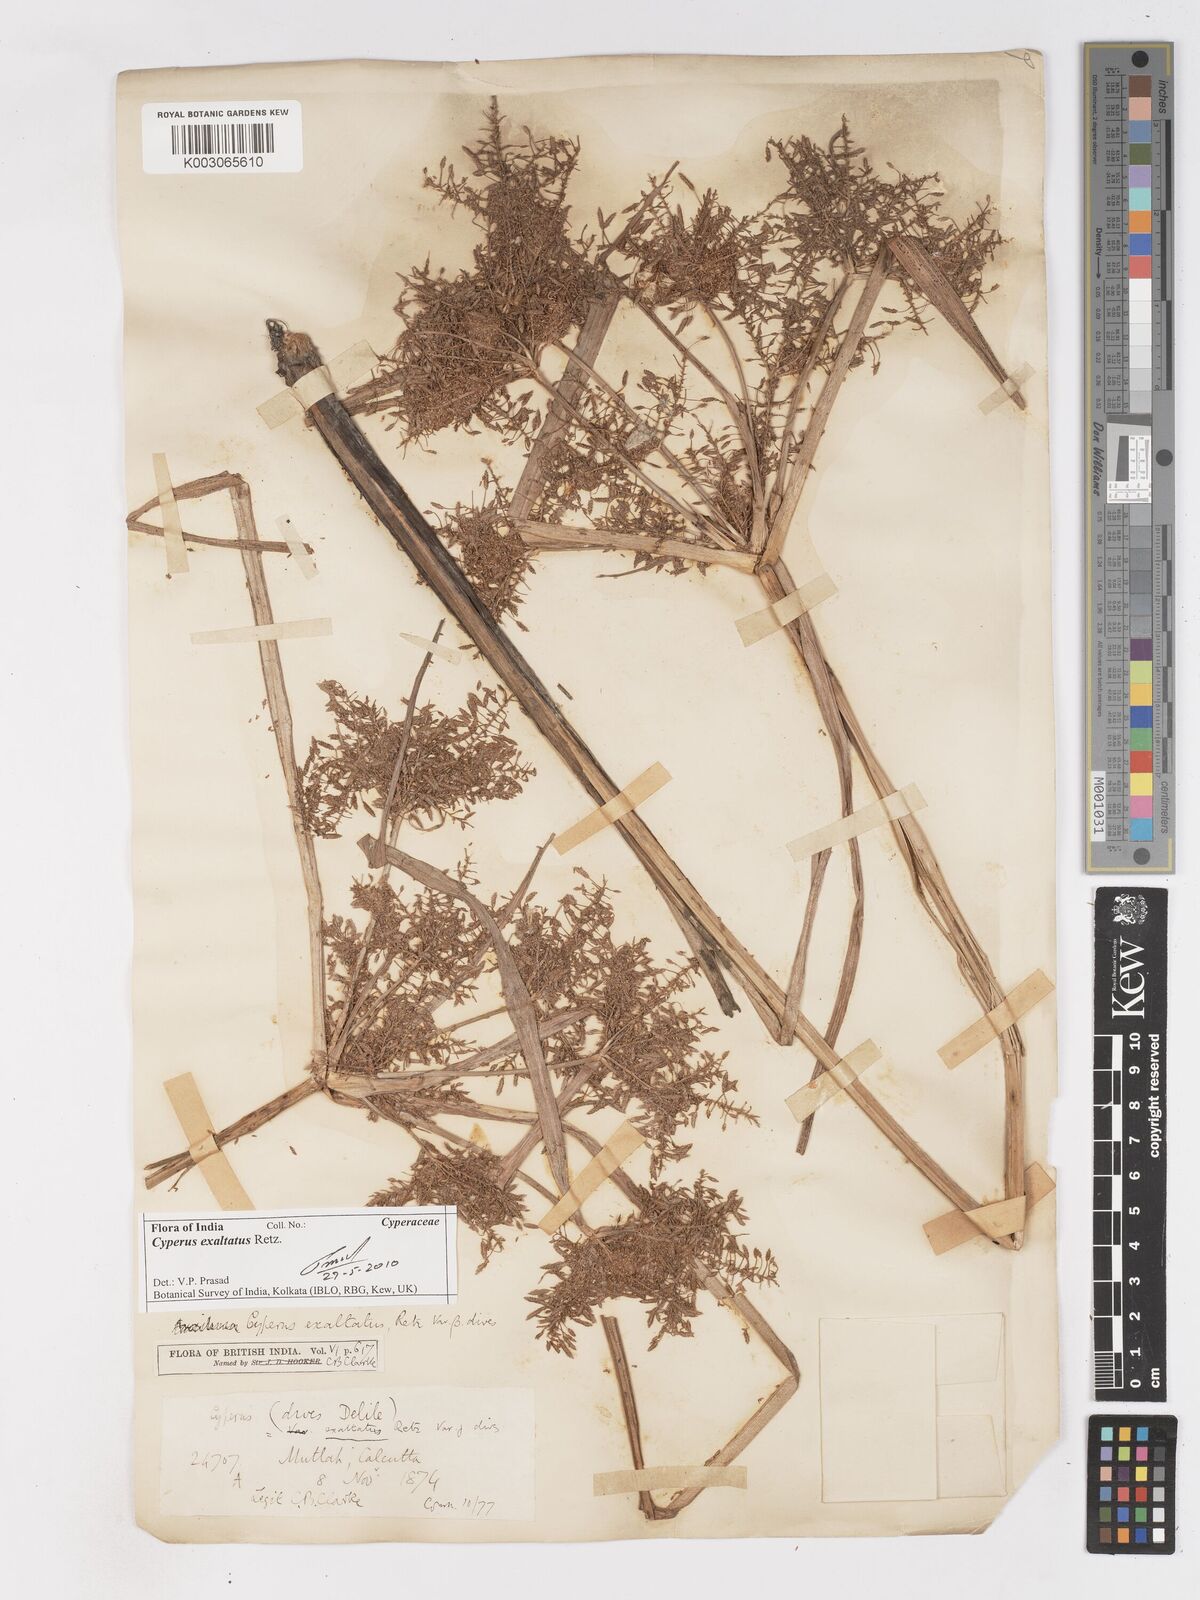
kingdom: Plantae
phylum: Tracheophyta
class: Liliopsida
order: Poales
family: Cyperaceae
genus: Cyperus
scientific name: Cyperus dives
